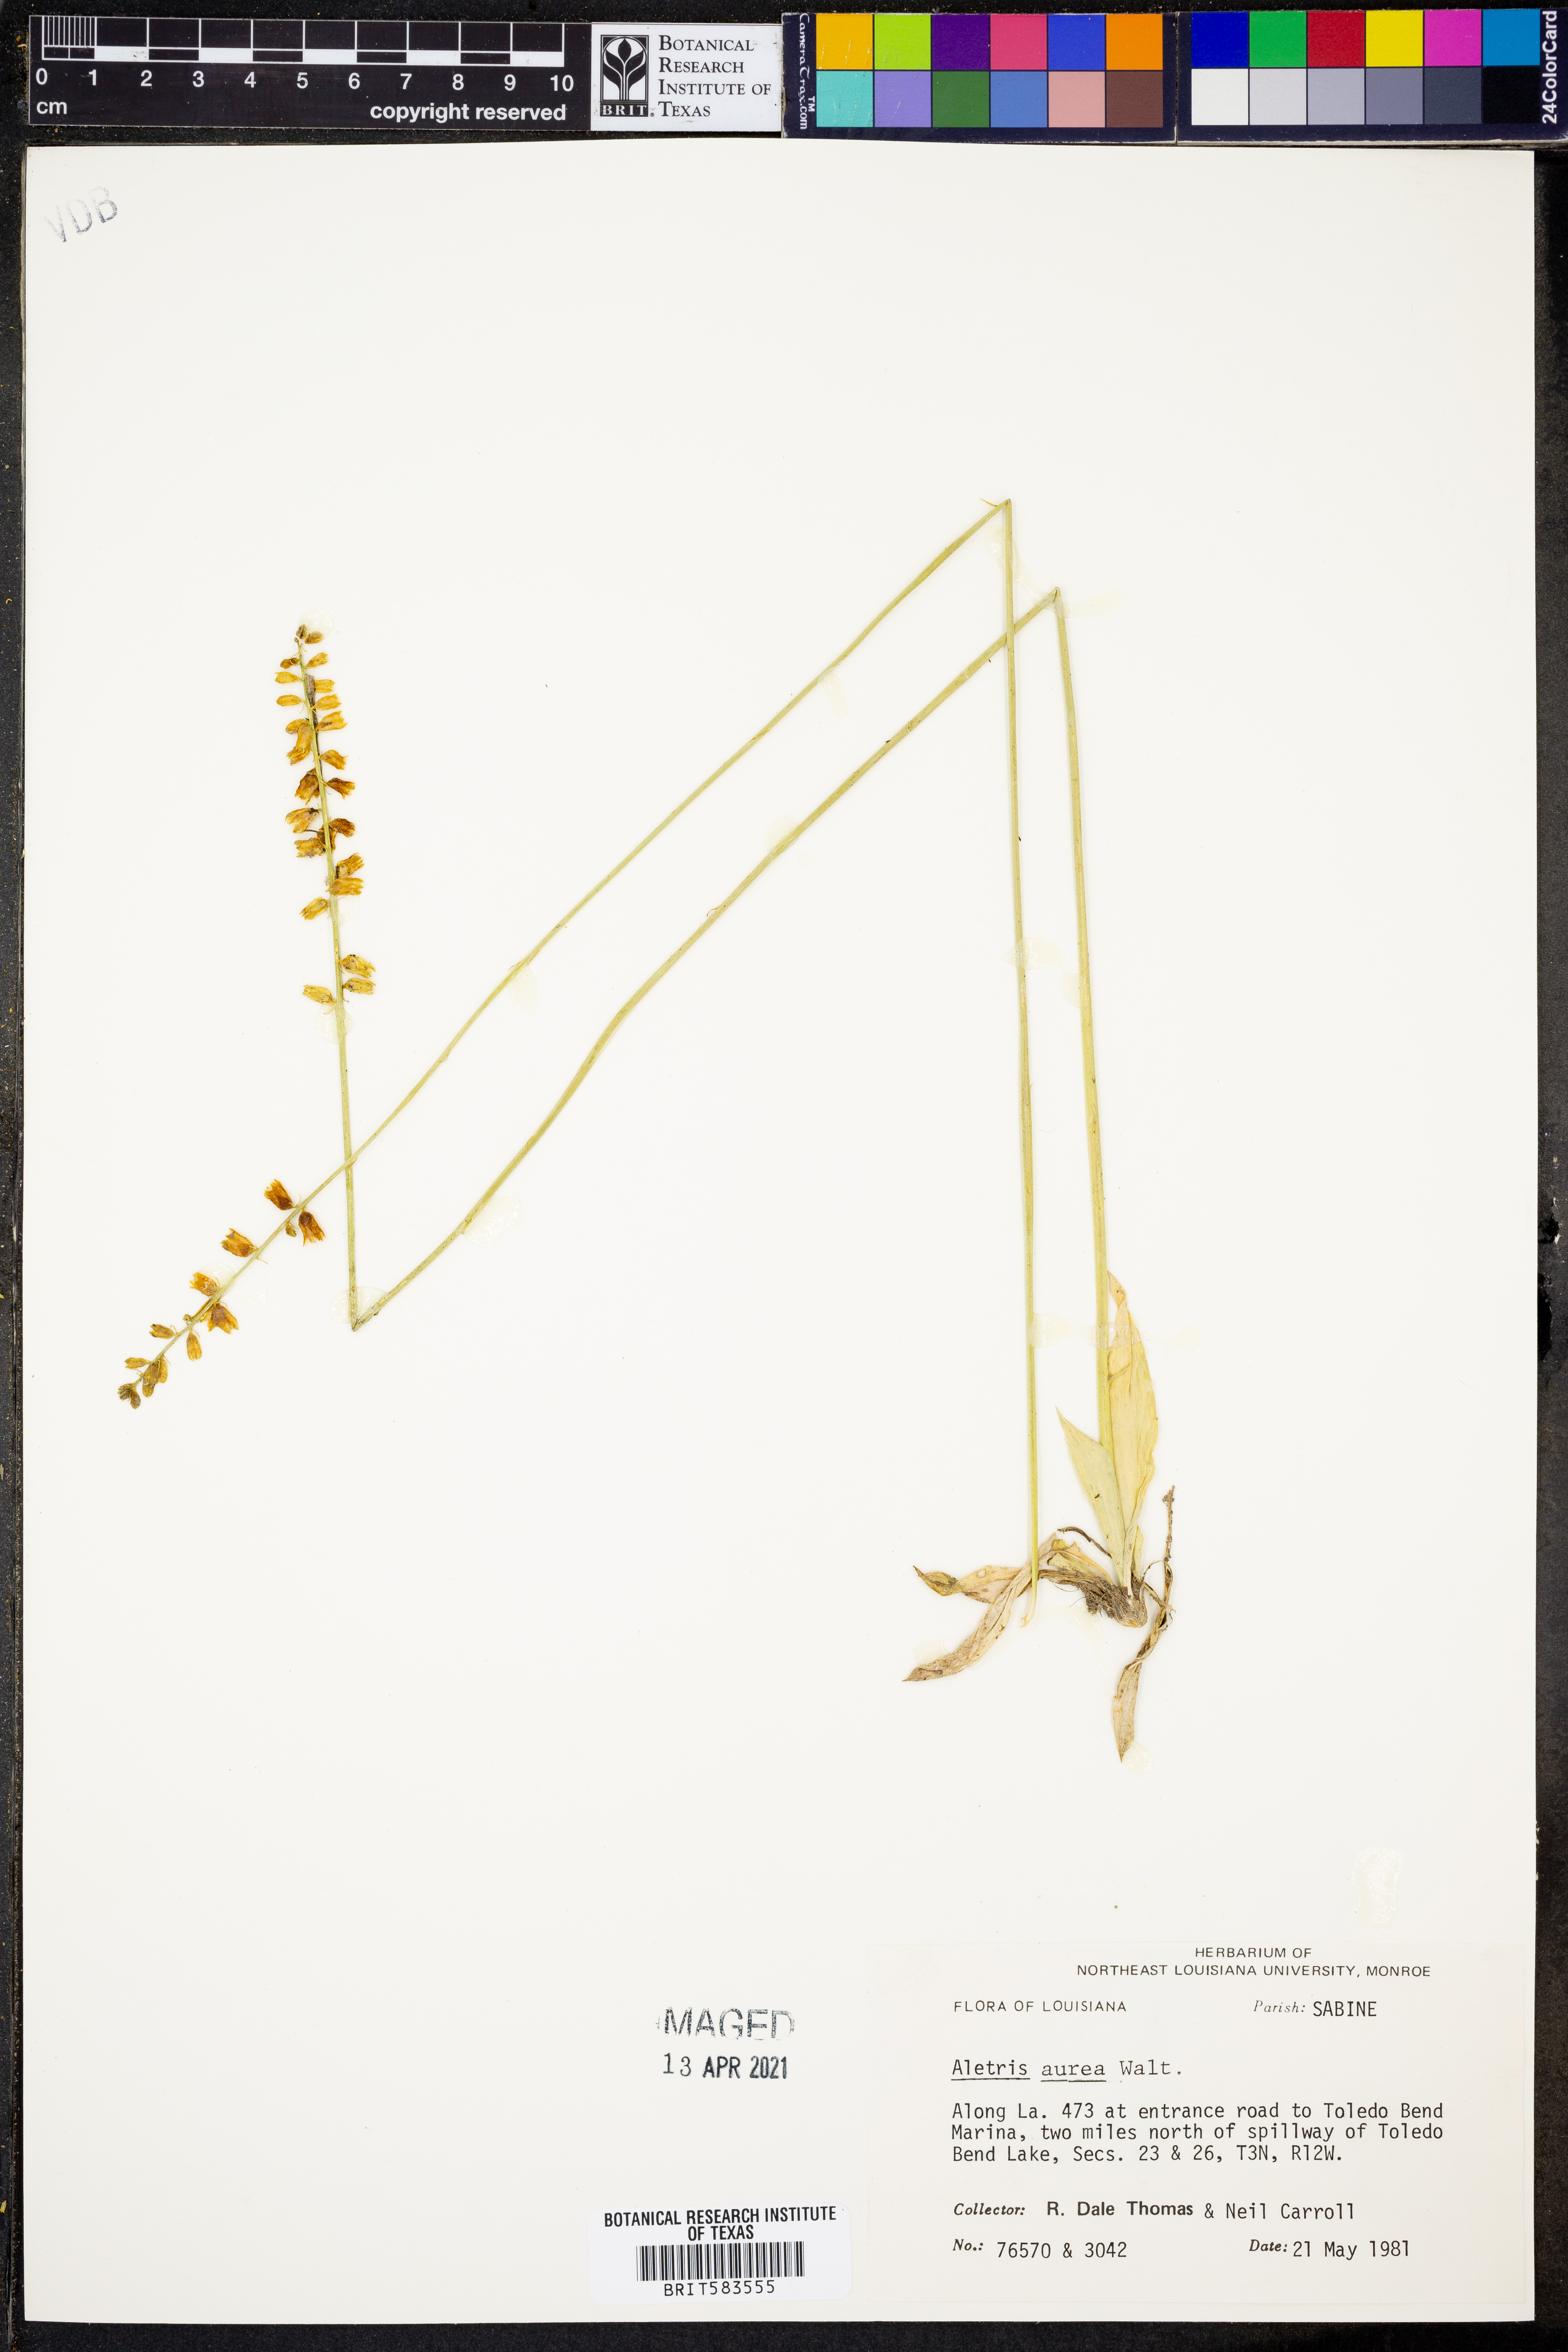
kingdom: Plantae
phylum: Tracheophyta
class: Liliopsida
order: Dioscoreales
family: Nartheciaceae
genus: Aletris
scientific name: Aletris aurea
